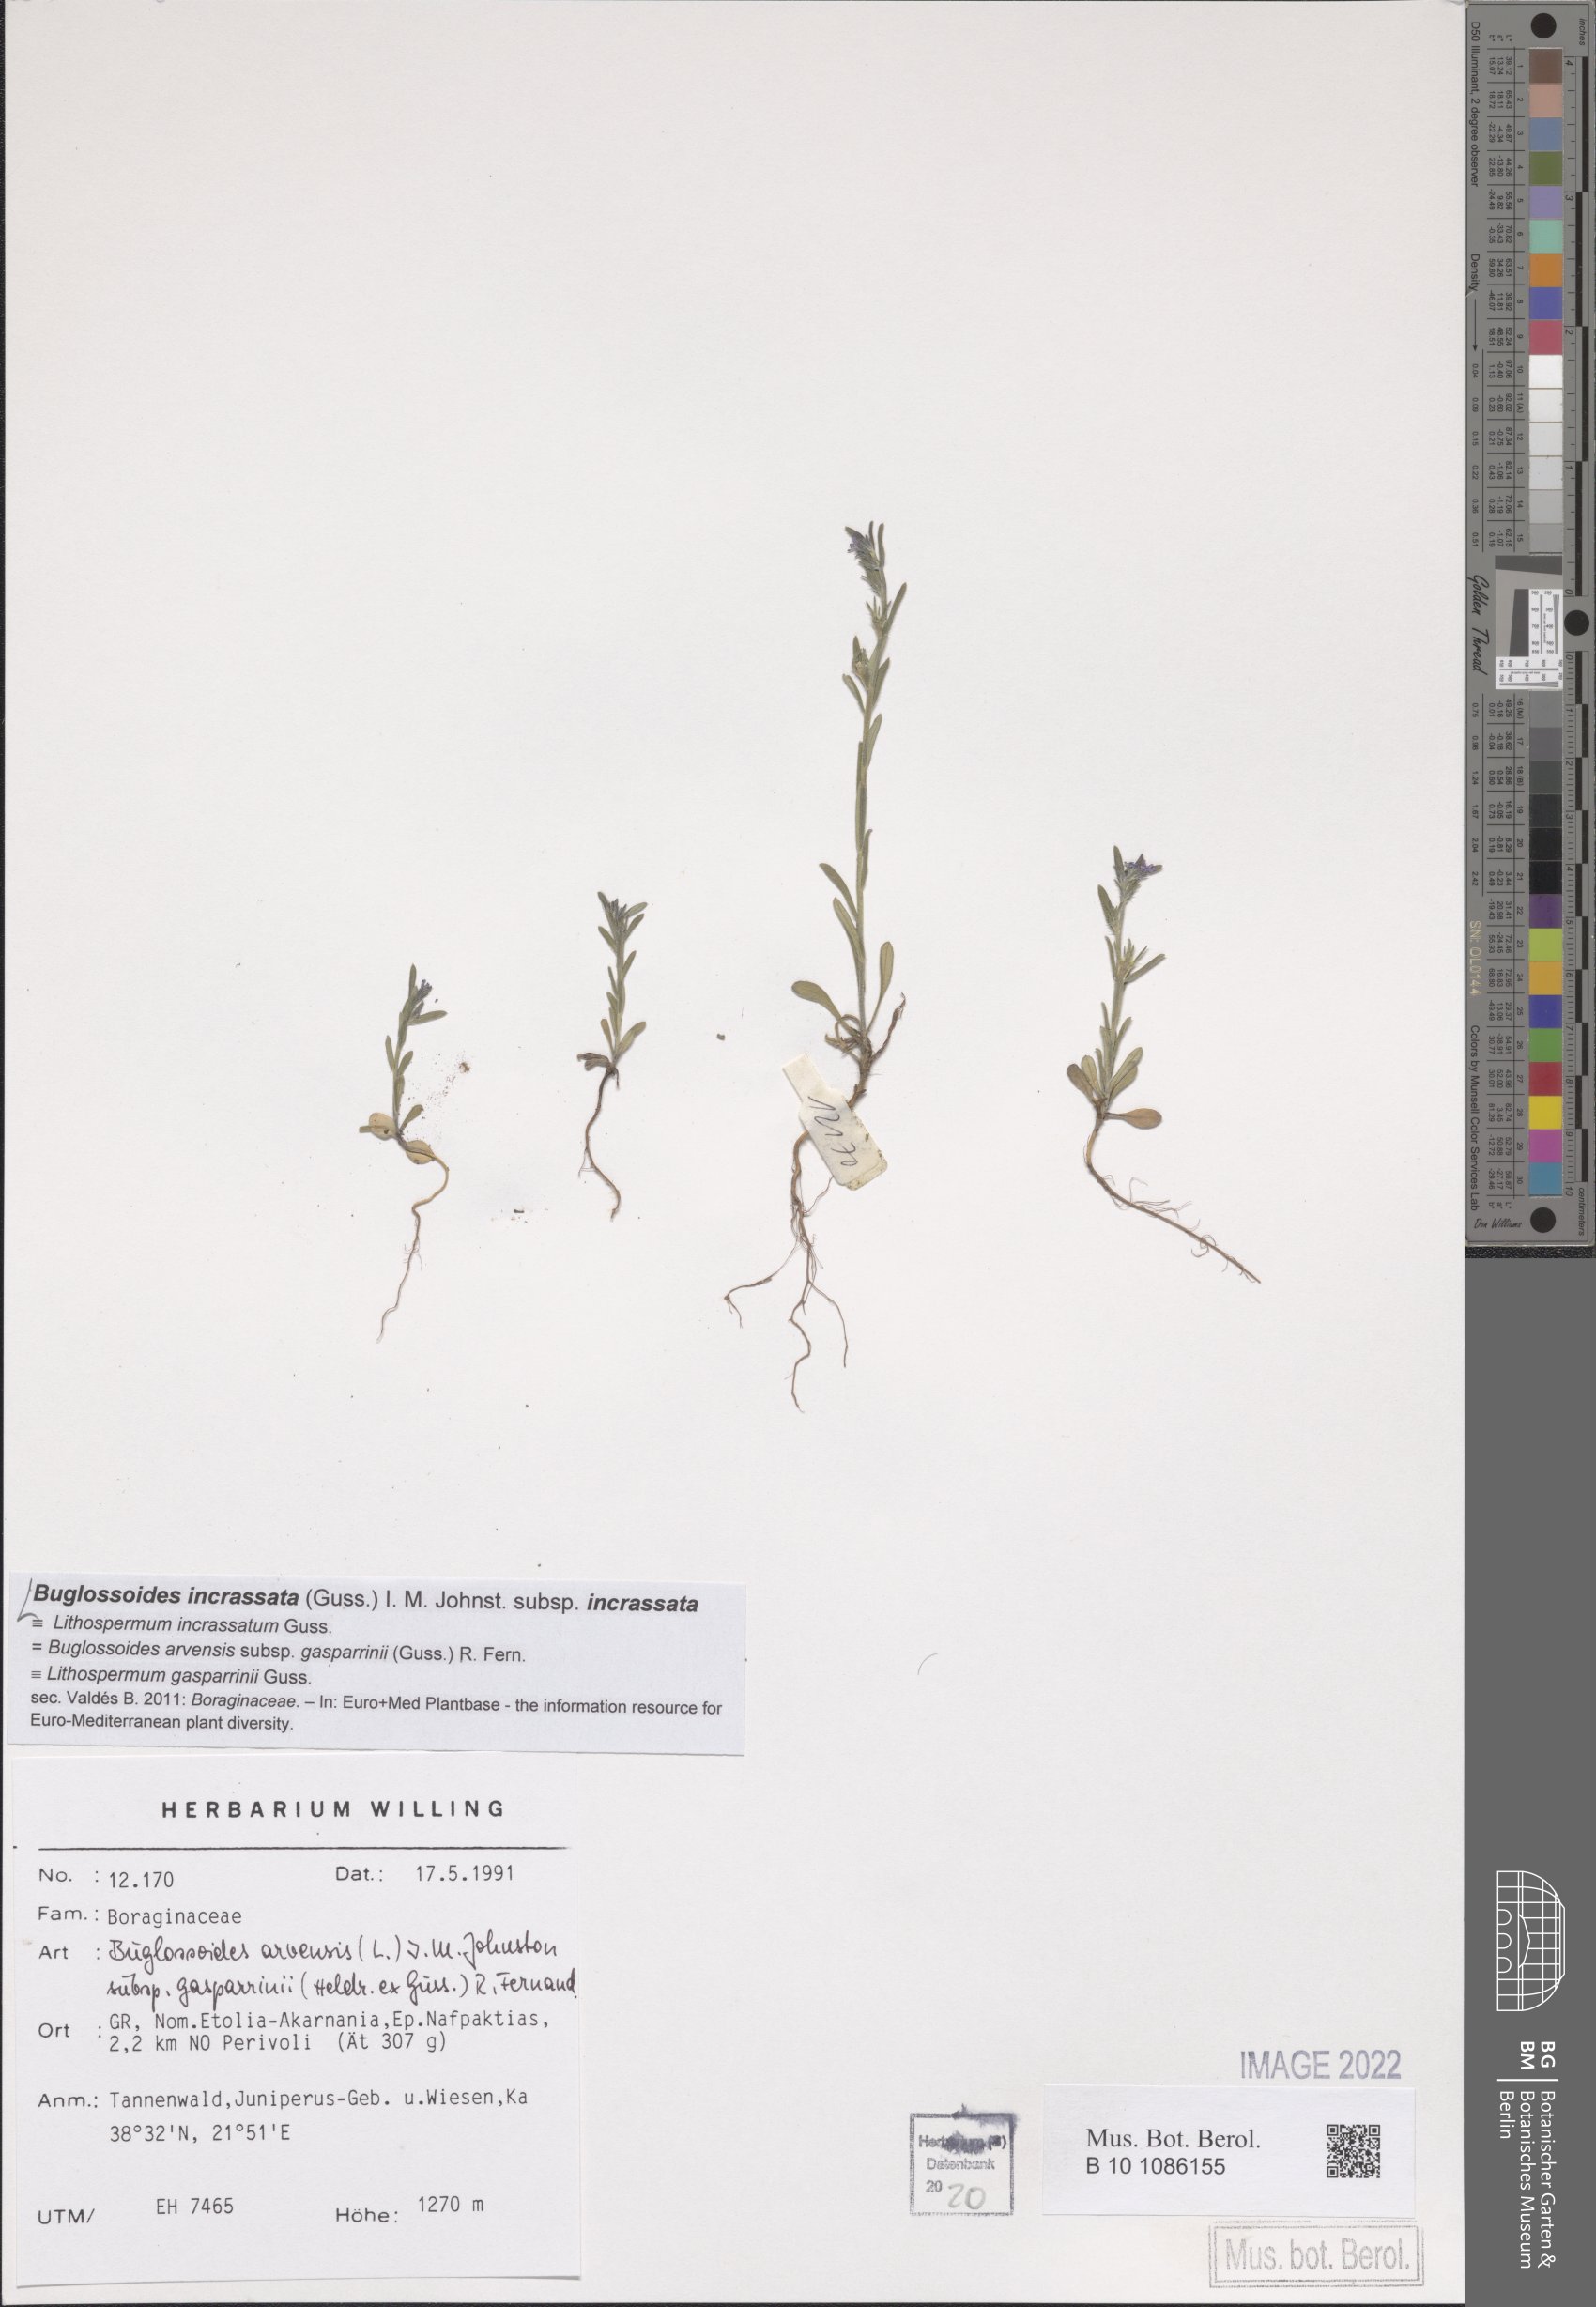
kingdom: Plantae
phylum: Tracheophyta
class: Magnoliopsida
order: Boraginales
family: Boraginaceae
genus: Buglossoides
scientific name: Buglossoides incrassata
